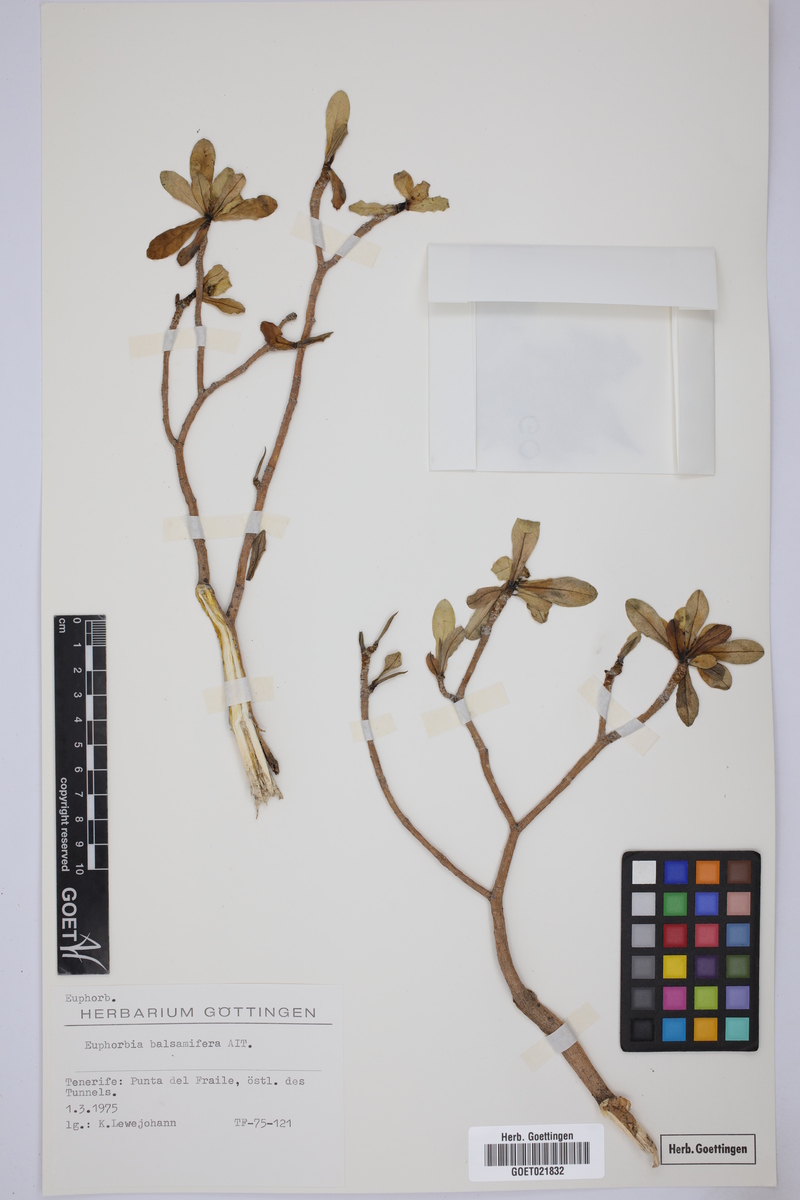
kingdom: Plantae
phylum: Tracheophyta
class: Magnoliopsida
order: Malpighiales
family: Euphorbiaceae
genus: Euphorbia
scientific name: Euphorbia balsamifera
